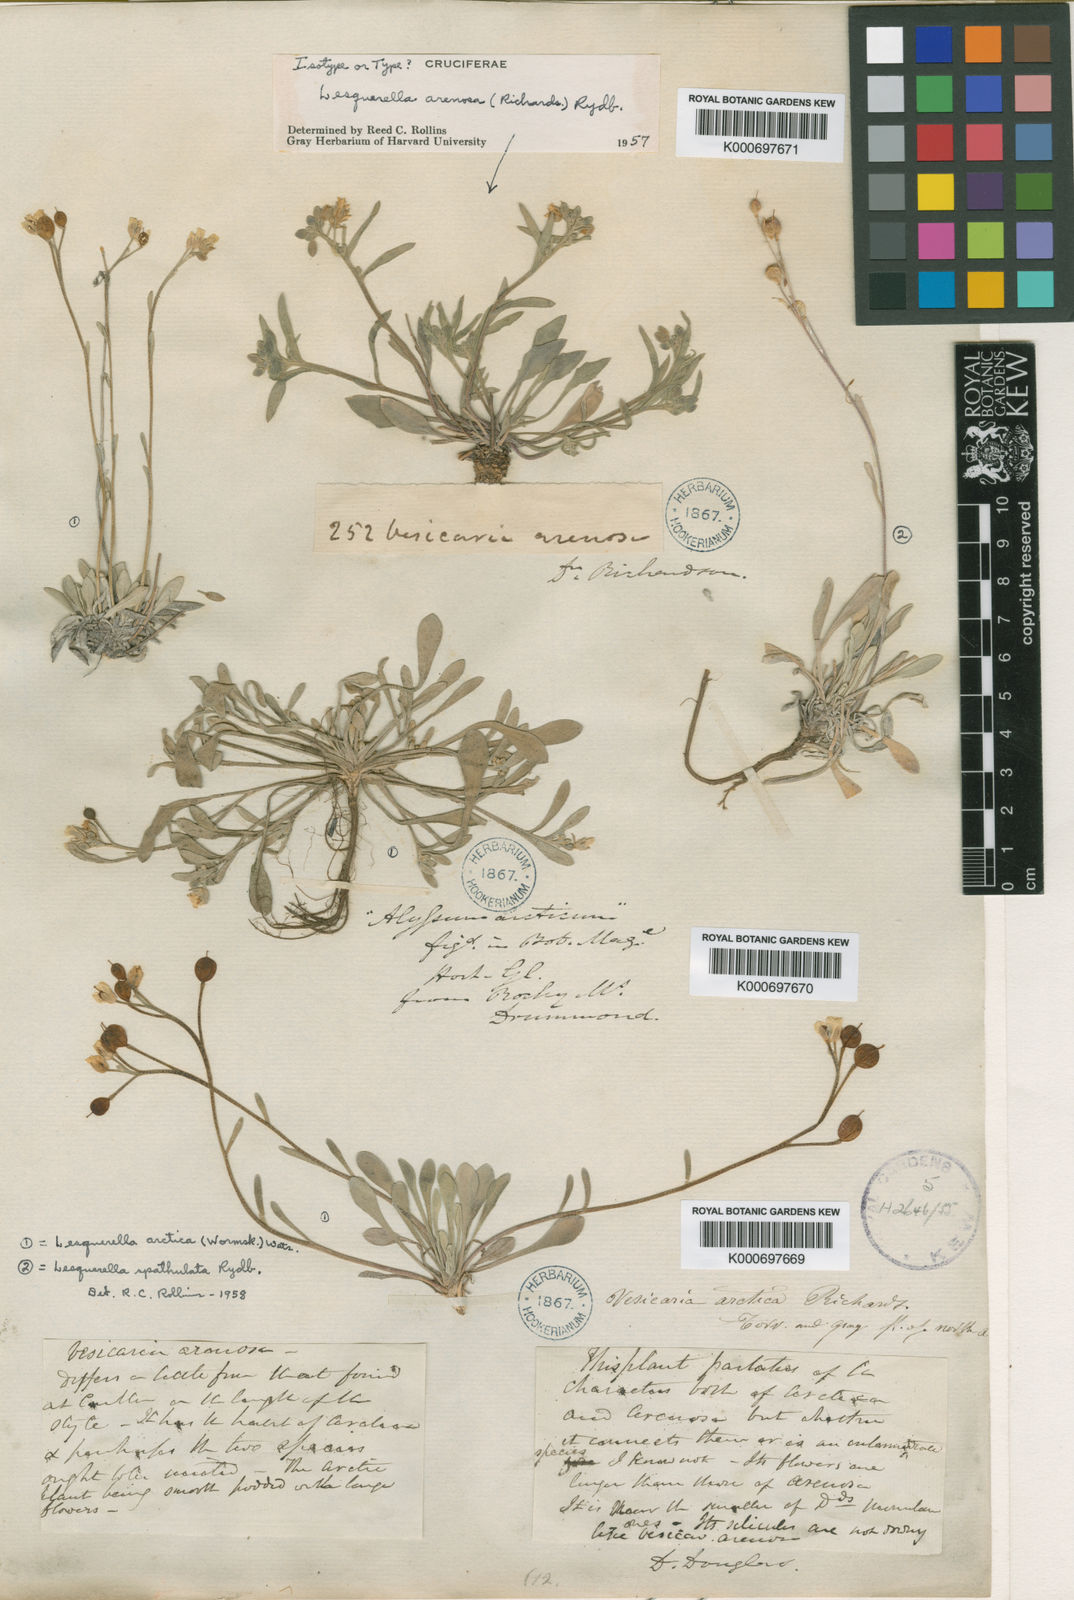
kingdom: Plantae
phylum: Tracheophyta
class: Magnoliopsida
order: Brassicales
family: Brassicaceae
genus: Physaria
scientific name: Physaria arenosa
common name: Great plains bladderpod
